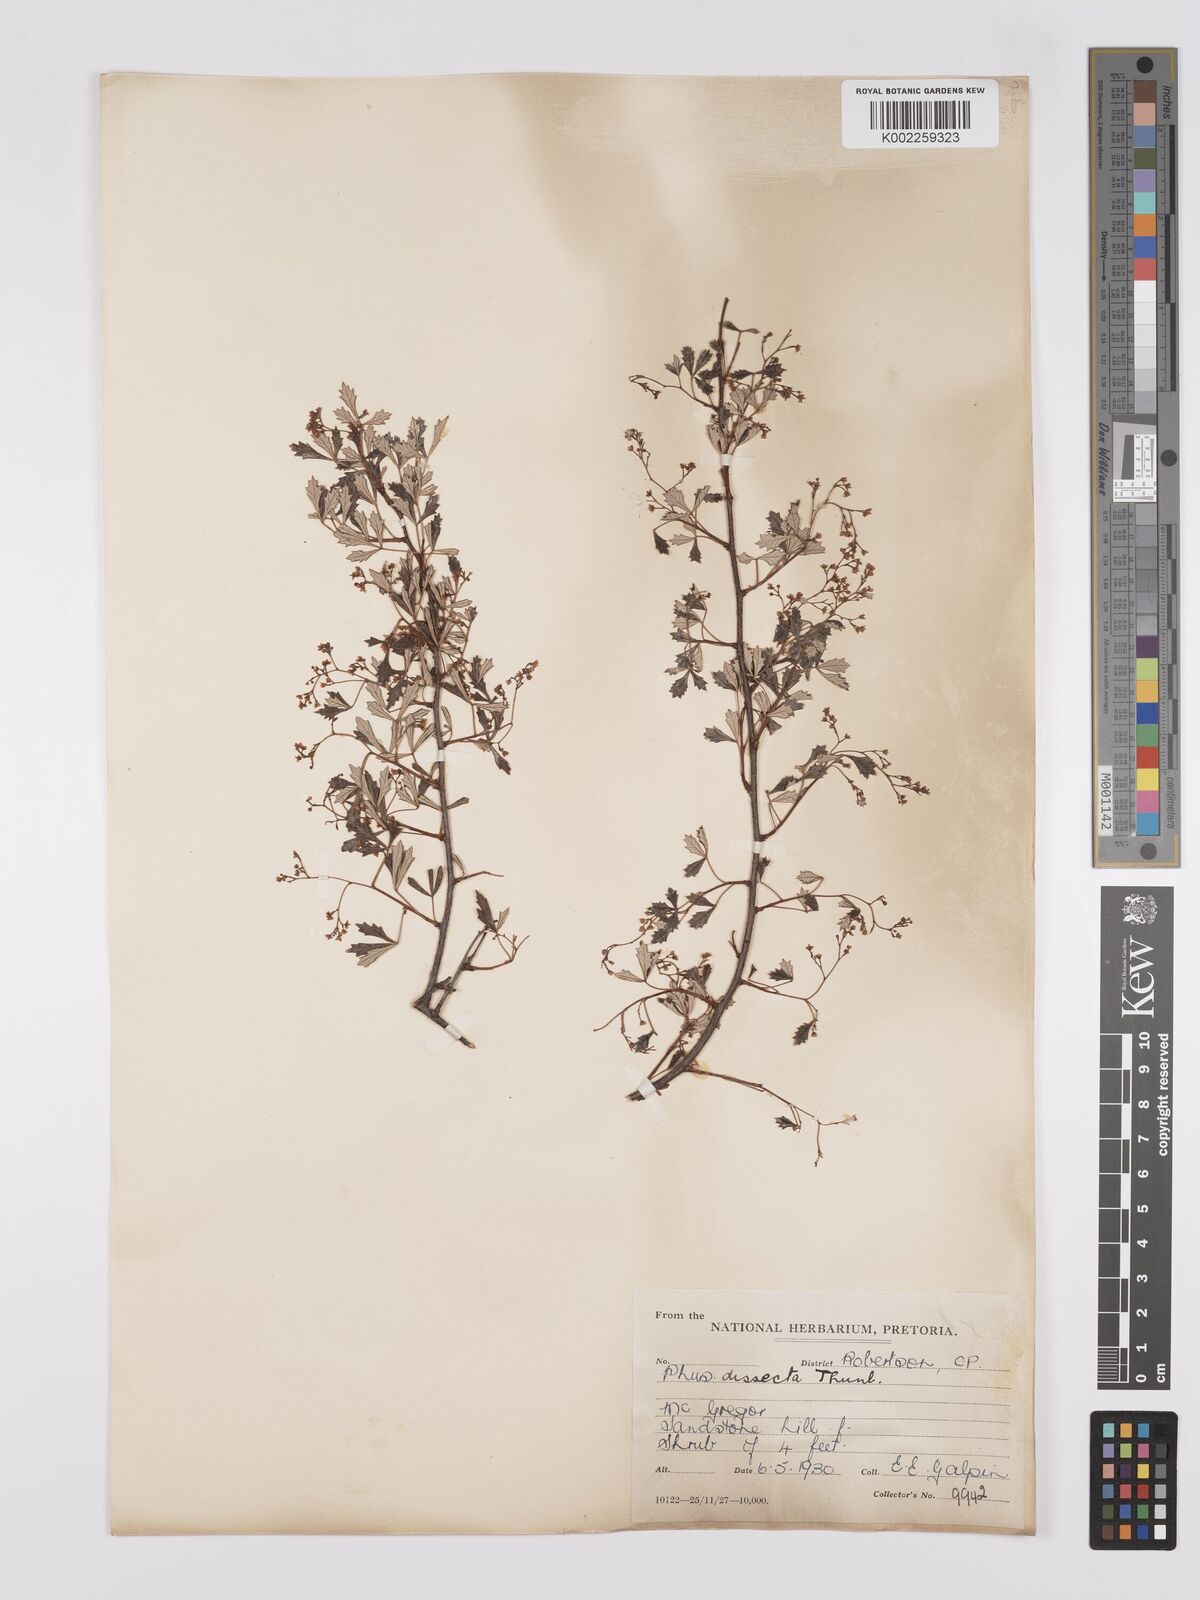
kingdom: Plantae
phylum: Tracheophyta
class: Magnoliopsida
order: Sapindales
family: Anacardiaceae
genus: Searsia
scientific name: Searsia dissecta
